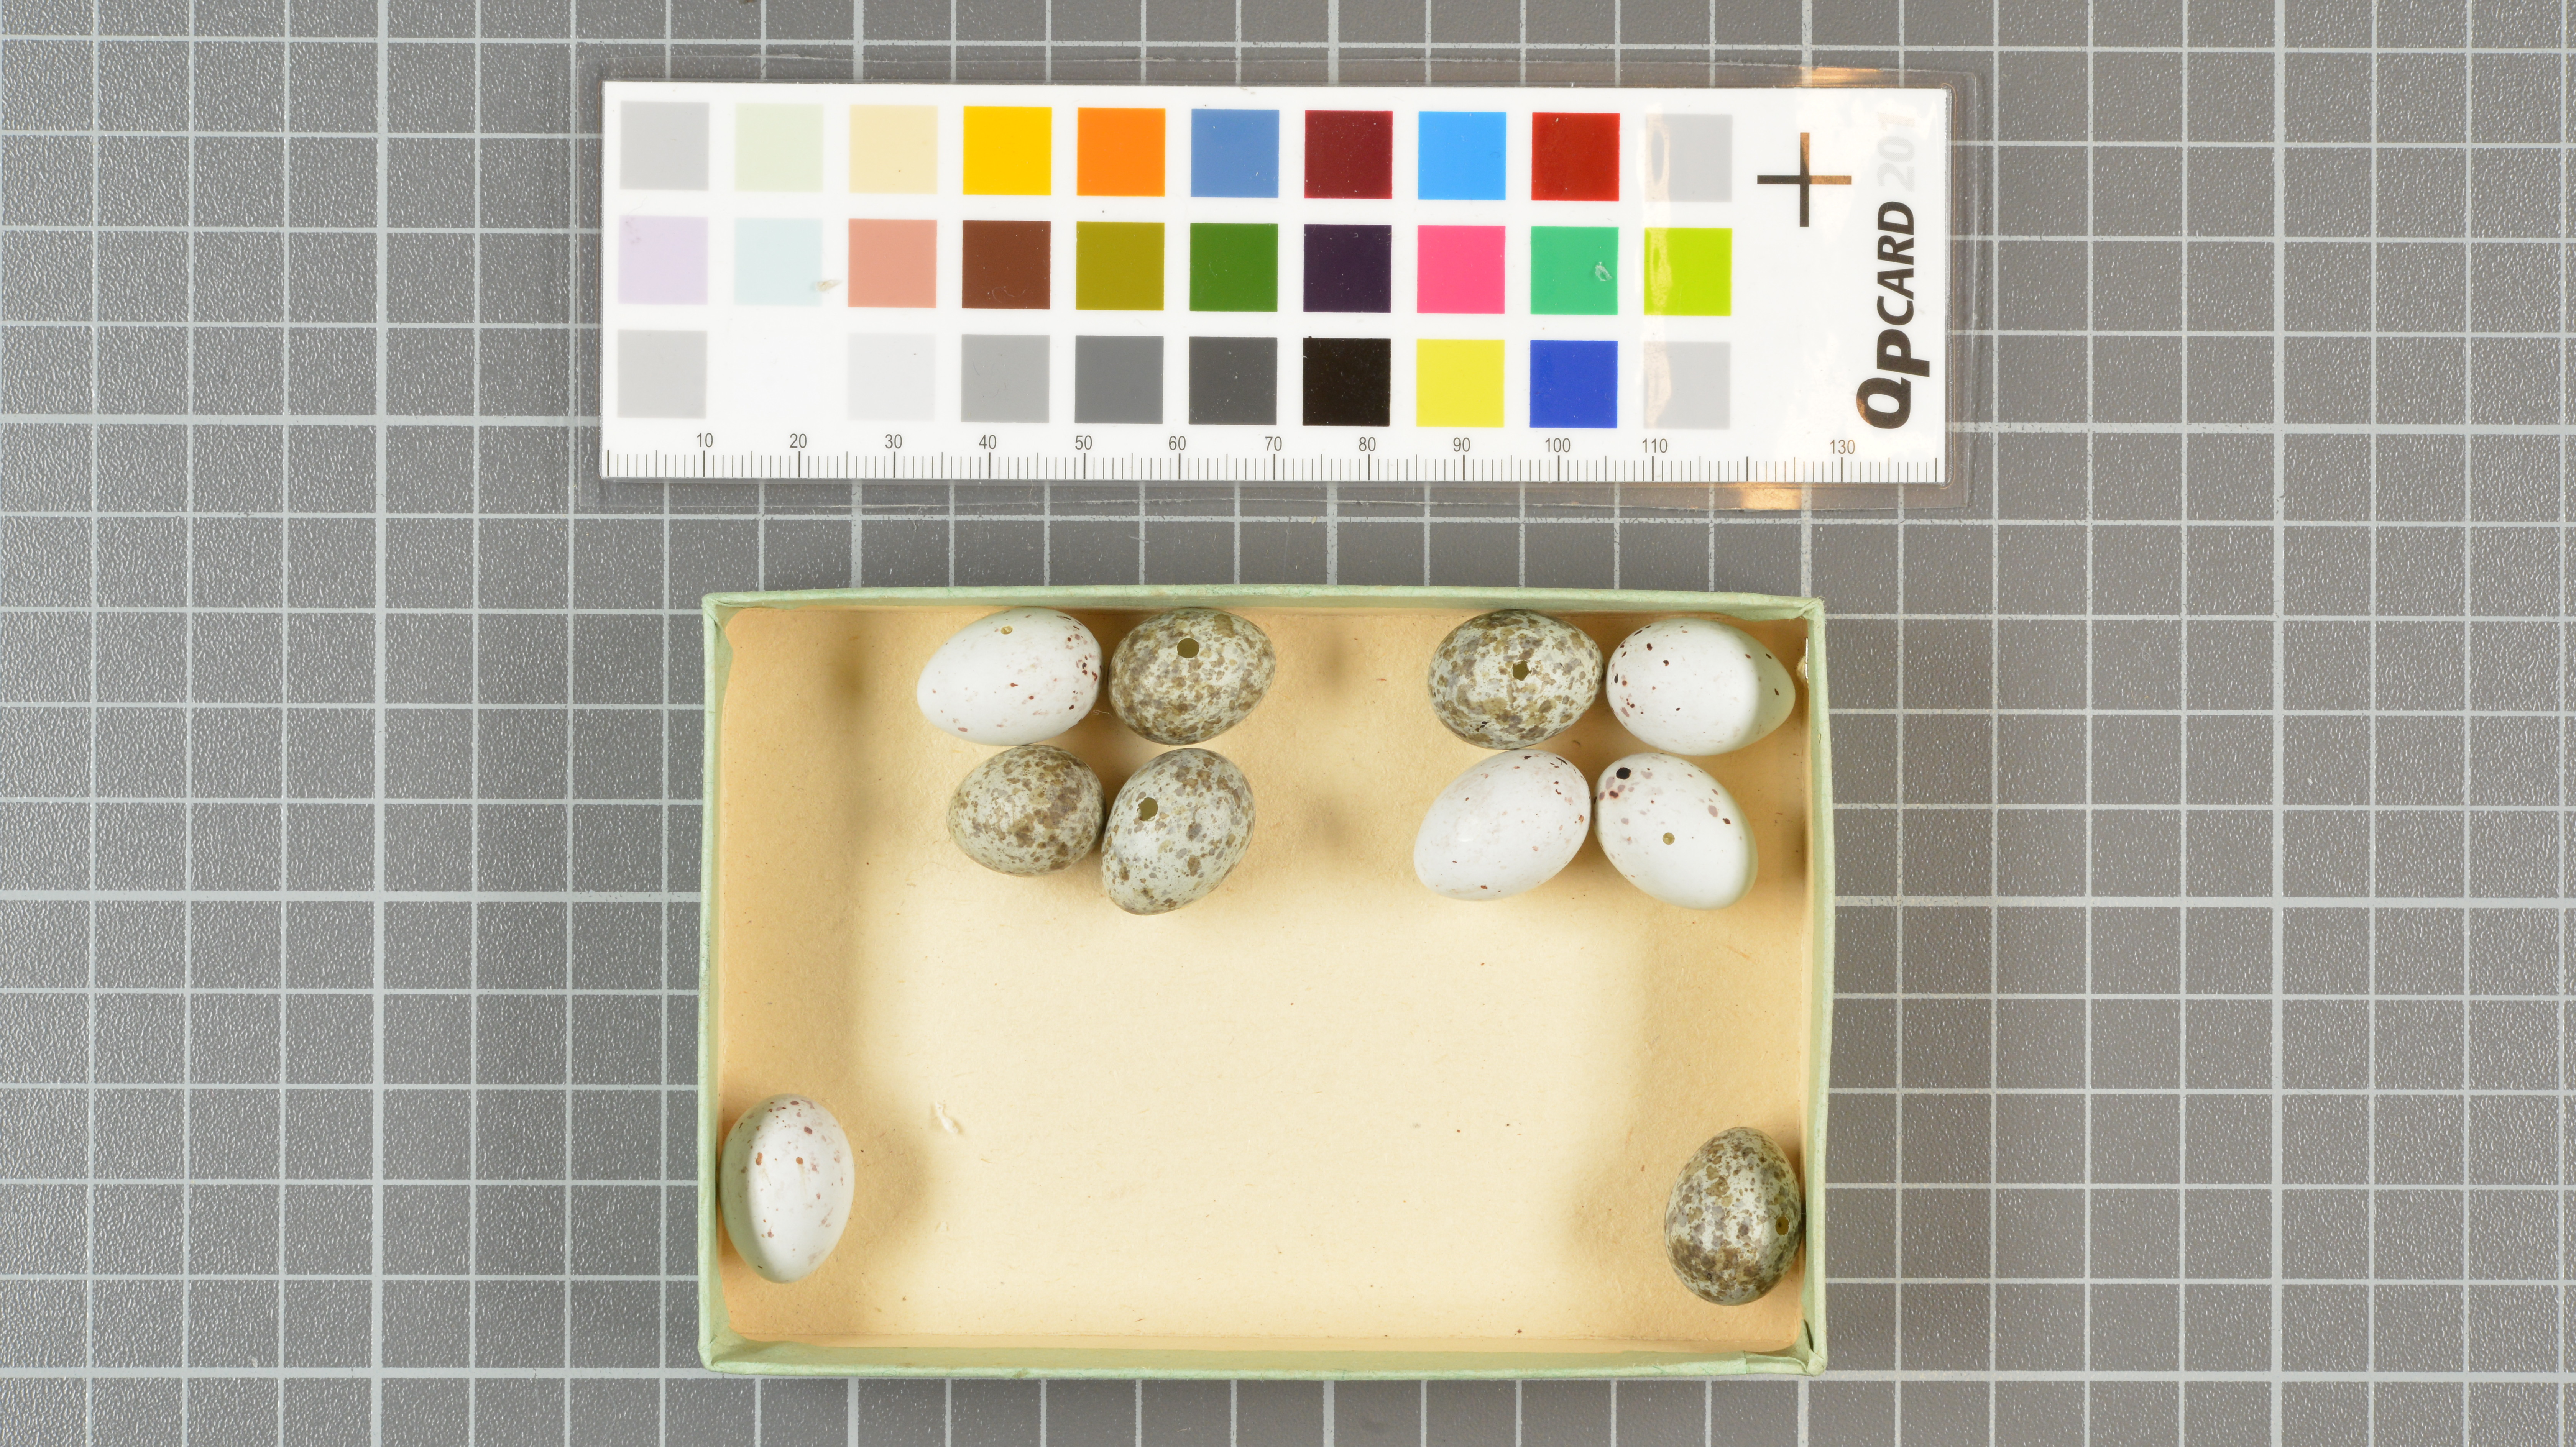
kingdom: Animalia
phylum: Chordata
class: Aves
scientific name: Aves
